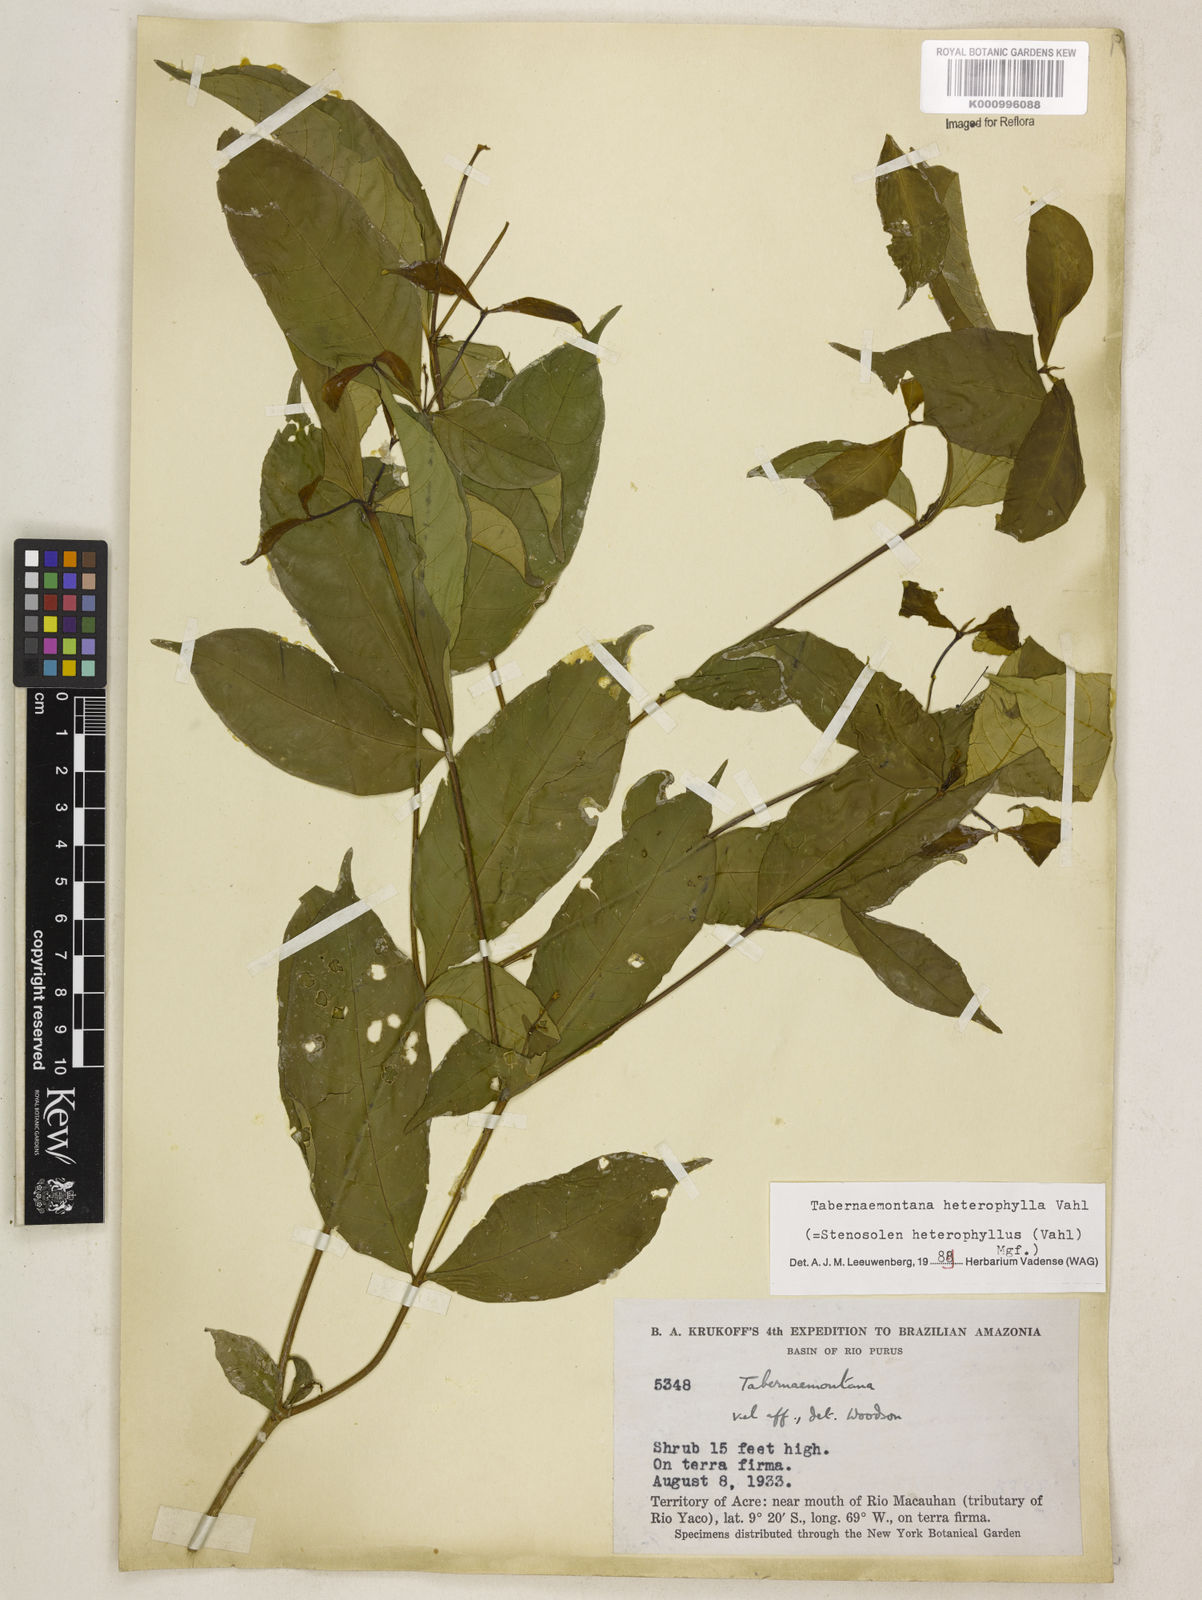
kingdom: Plantae
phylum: Tracheophyta
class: Magnoliopsida
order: Gentianales
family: Apocynaceae
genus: Tabernaemontana
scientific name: Tabernaemontana heterophylla
